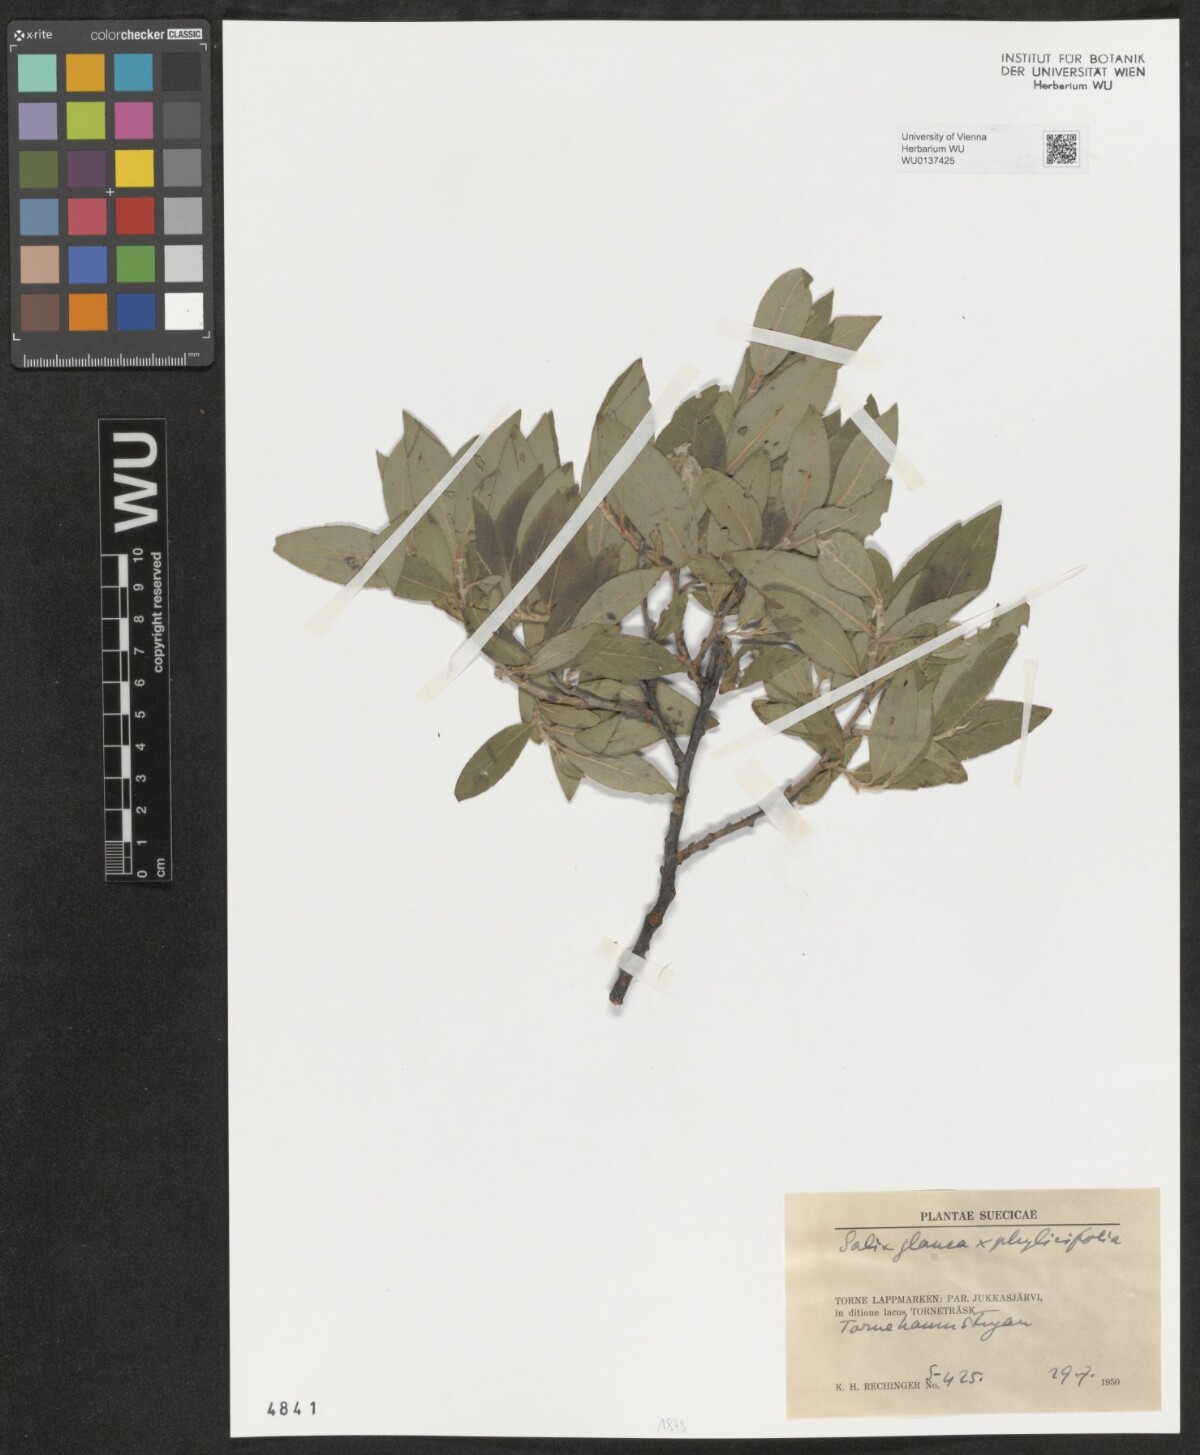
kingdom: Plantae
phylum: Tracheophyta
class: Magnoliopsida
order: Malpighiales
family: Salicaceae
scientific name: Salicaceae
